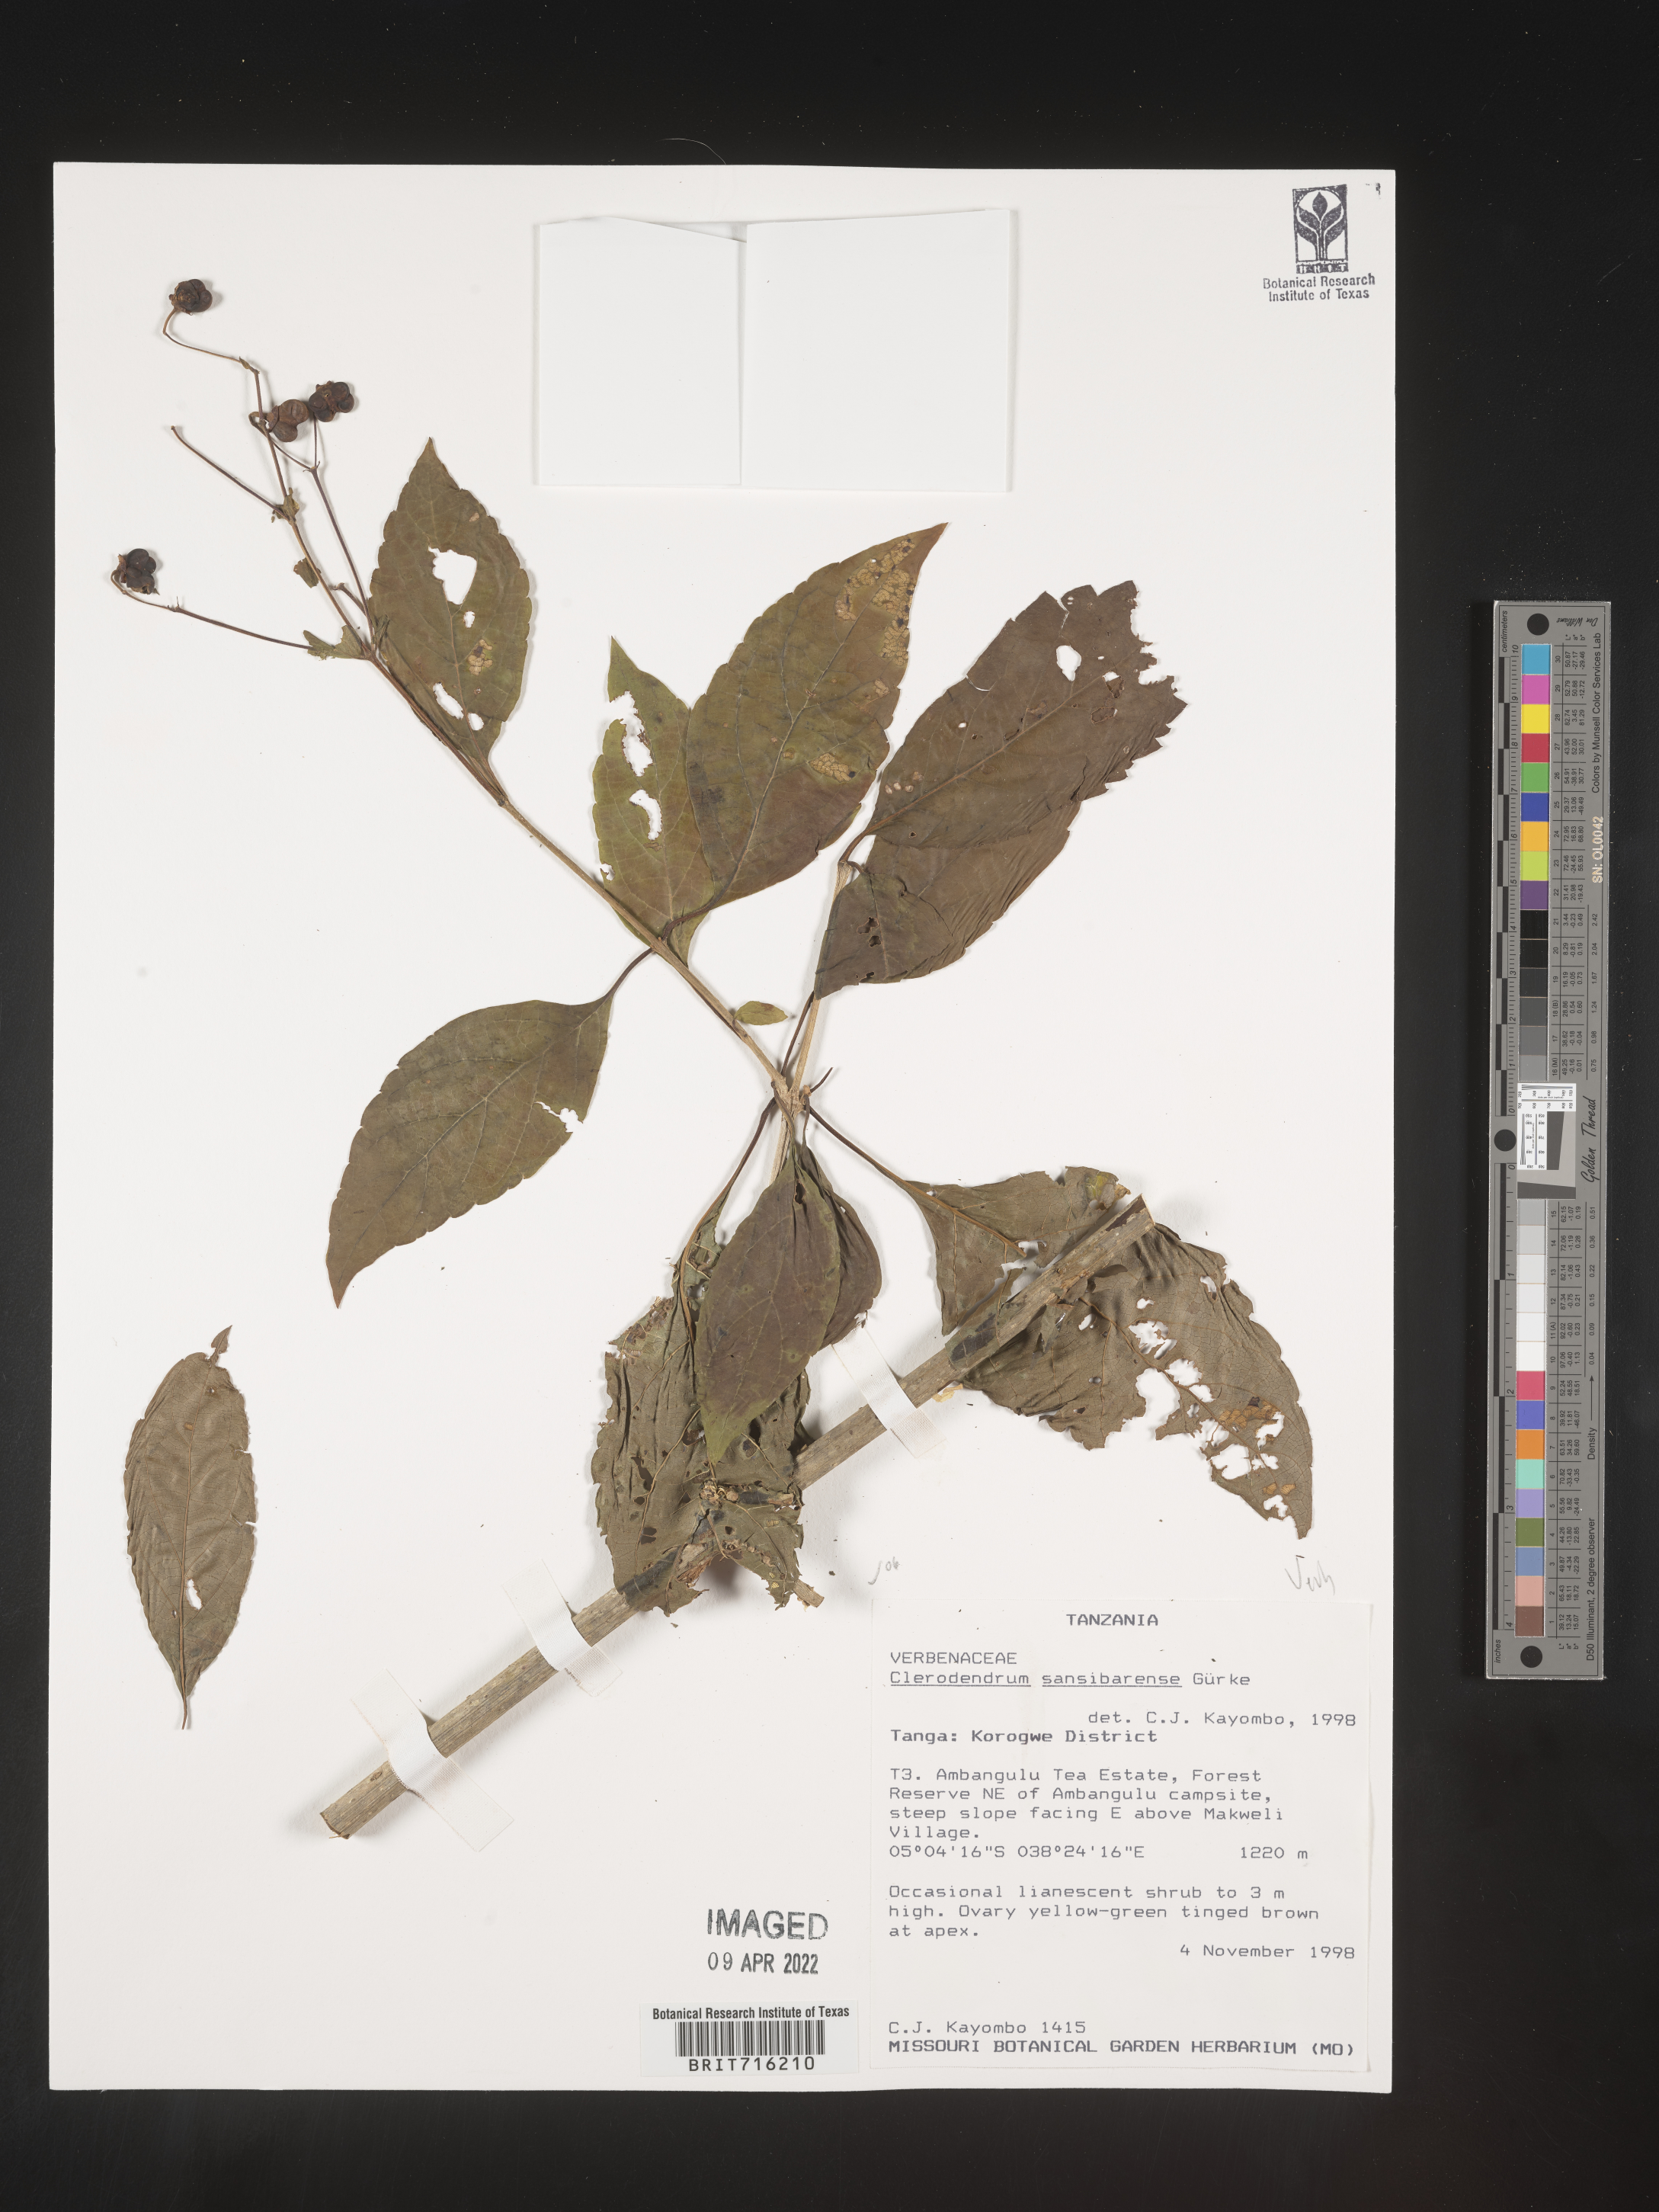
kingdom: Plantae
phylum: Tracheophyta
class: Magnoliopsida
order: Lamiales
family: Lamiaceae
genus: Clerodendrum
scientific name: Clerodendrum
